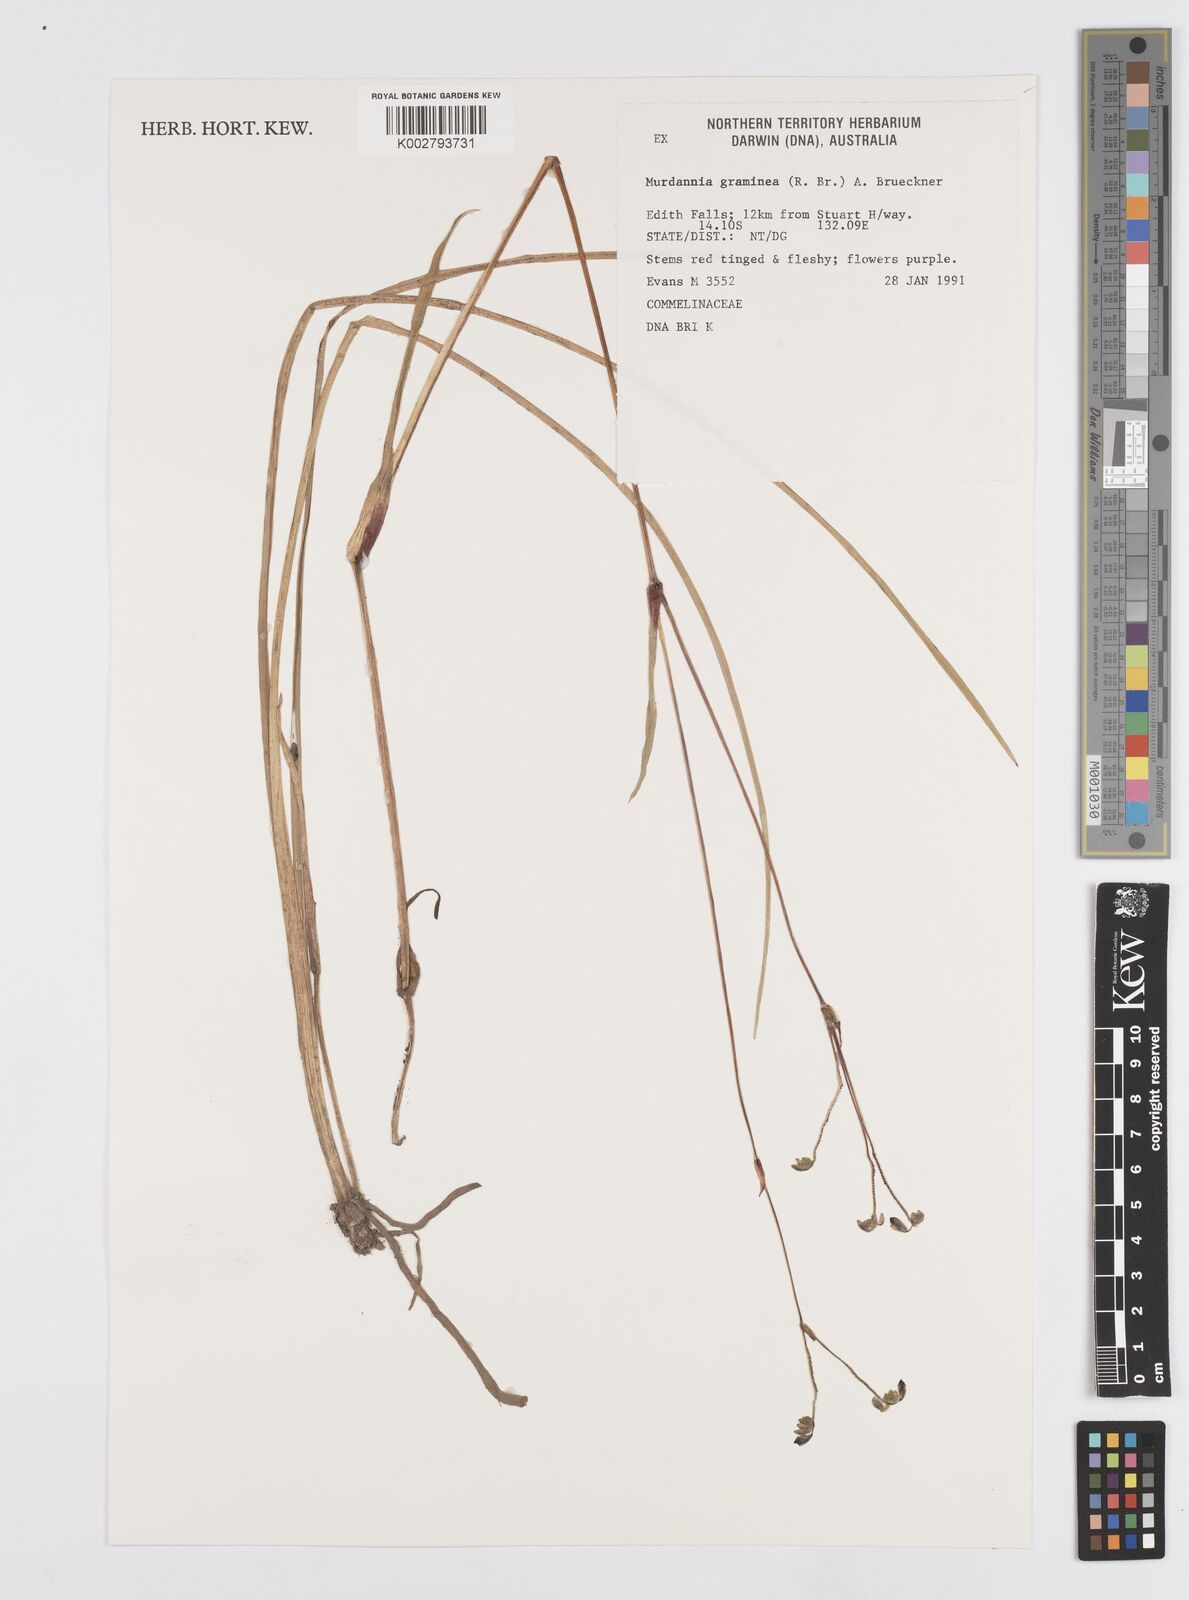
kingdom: Plantae
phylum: Tracheophyta
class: Liliopsida
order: Commelinales
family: Commelinaceae
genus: Murdannia
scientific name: Murdannia graminea
